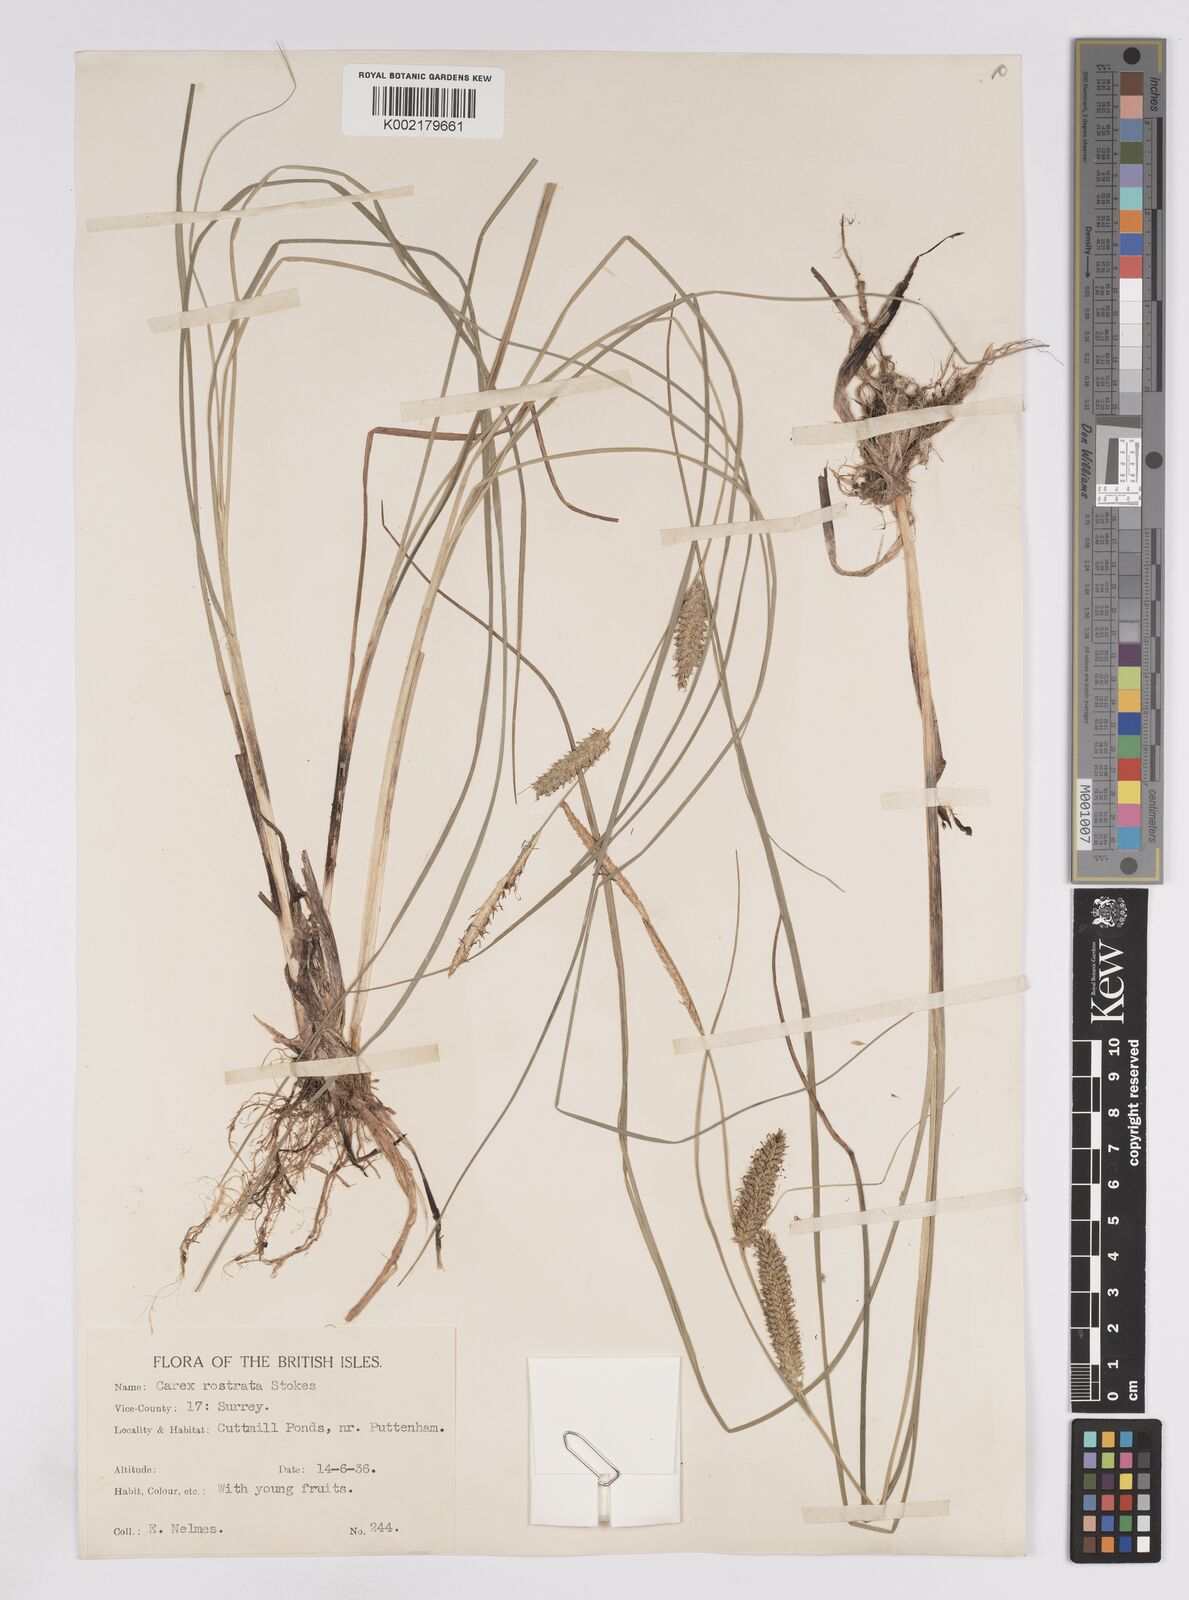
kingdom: Plantae
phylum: Tracheophyta
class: Liliopsida
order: Poales
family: Cyperaceae
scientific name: Cyperaceae
